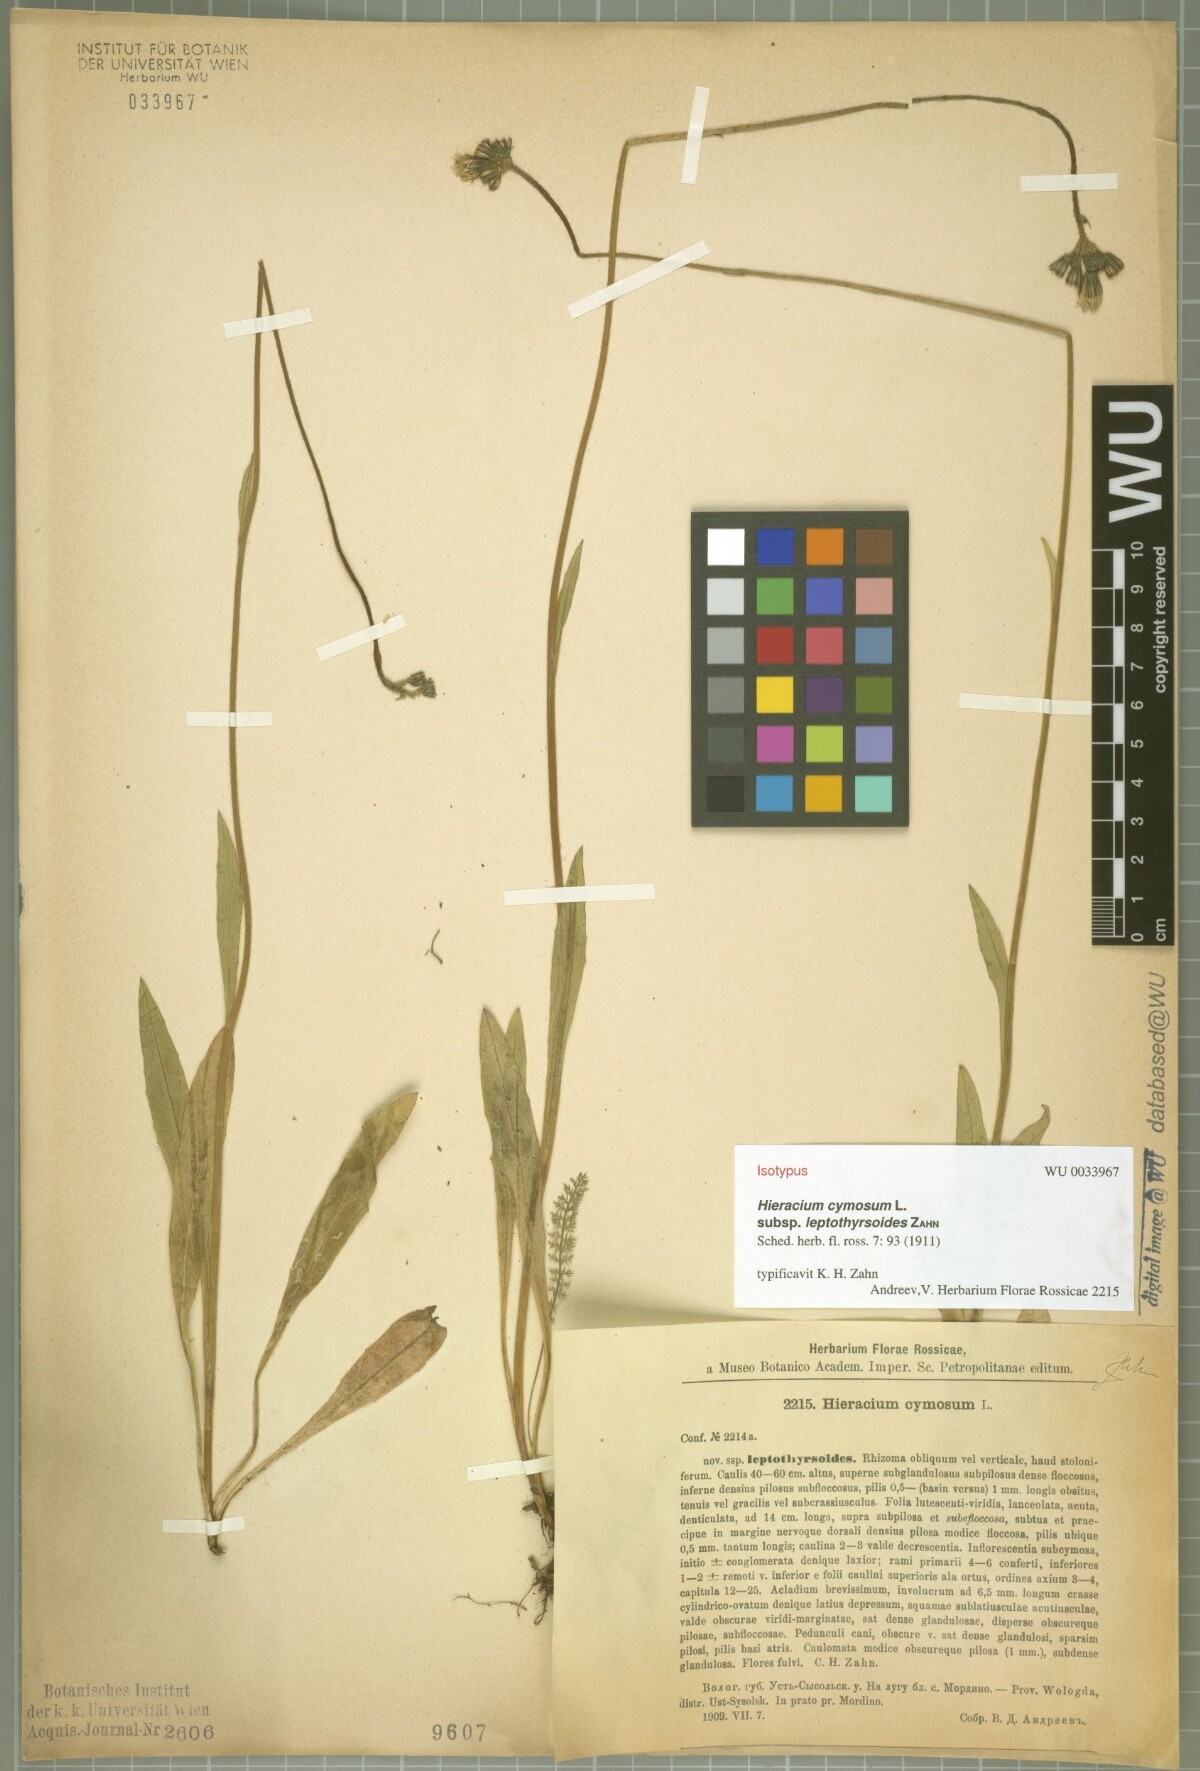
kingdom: Plantae
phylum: Tracheophyta
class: Magnoliopsida
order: Asterales
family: Asteraceae
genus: Pilosella
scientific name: Pilosella glomerata
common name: Queen devil hawkweed
